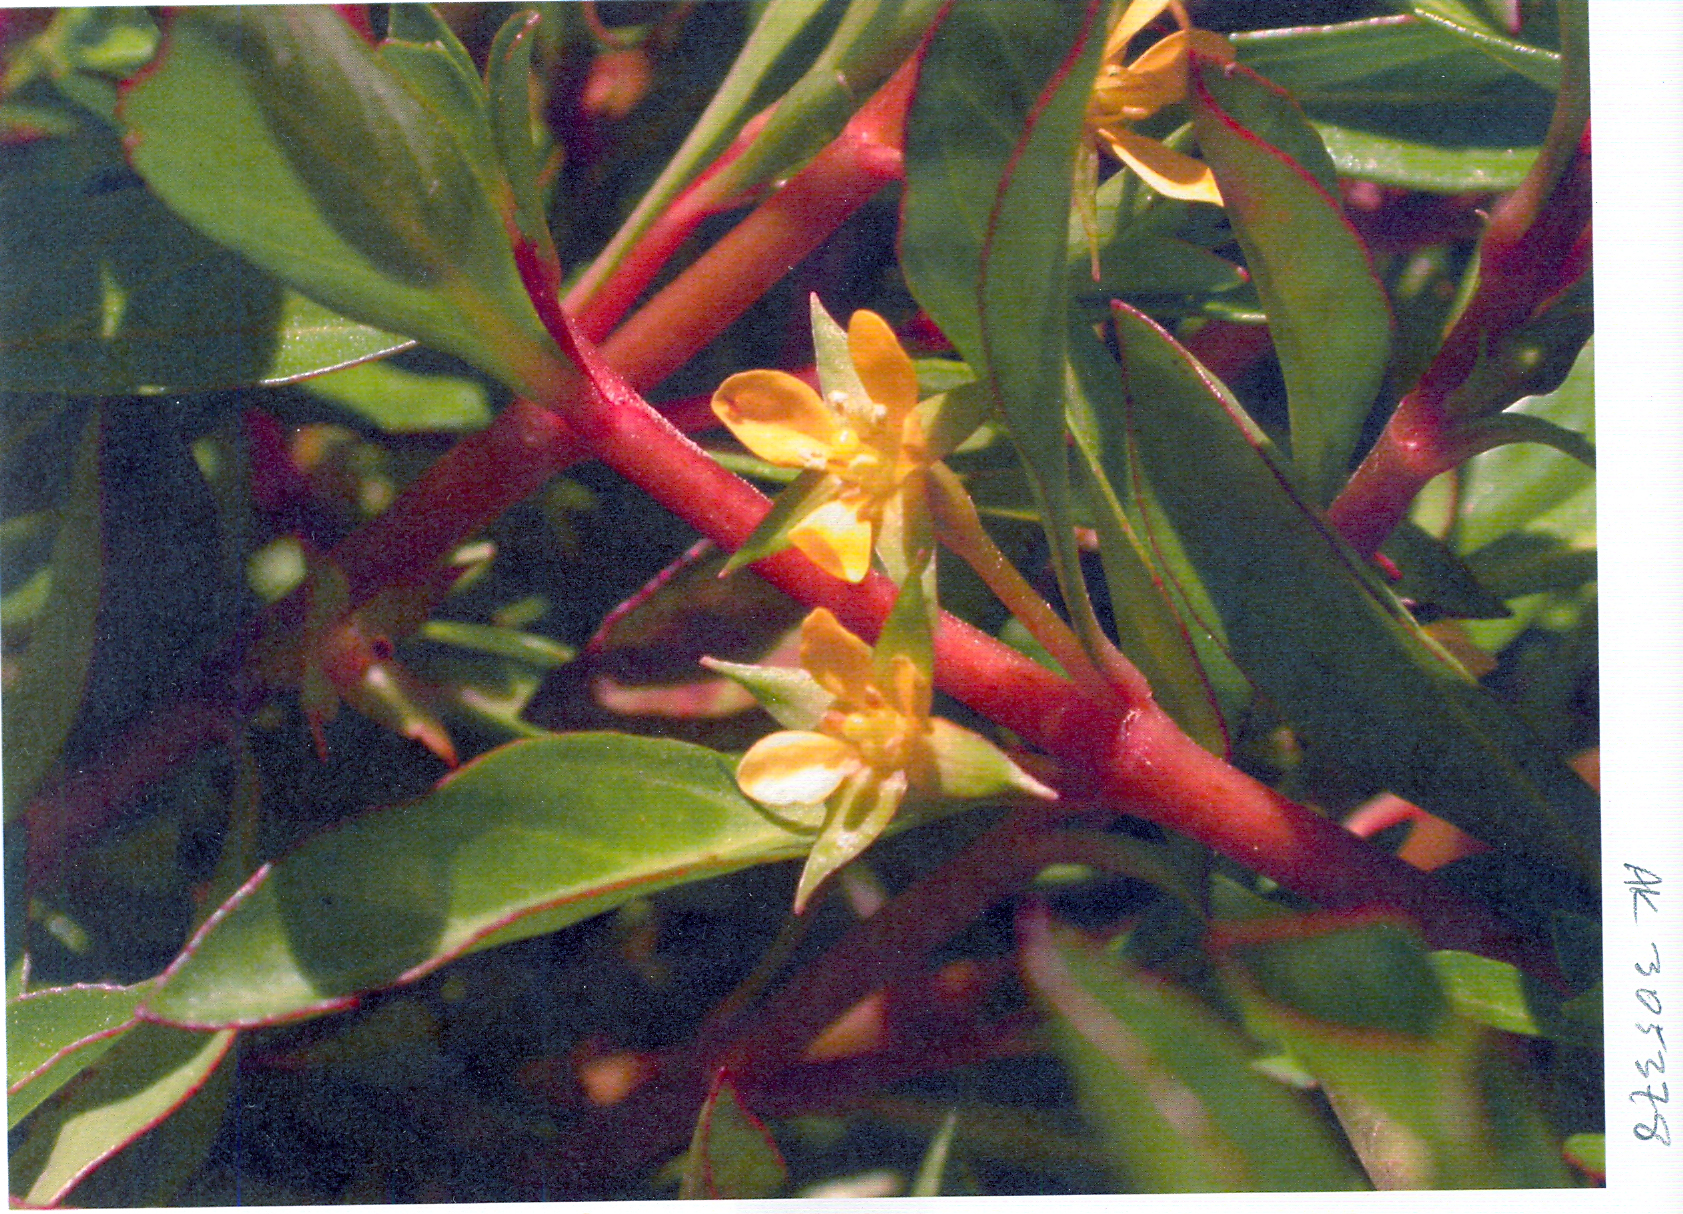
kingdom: Plantae
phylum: Tracheophyta
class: Magnoliopsida
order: Myrtales
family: Onagraceae
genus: Ludwigia
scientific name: Ludwigia
